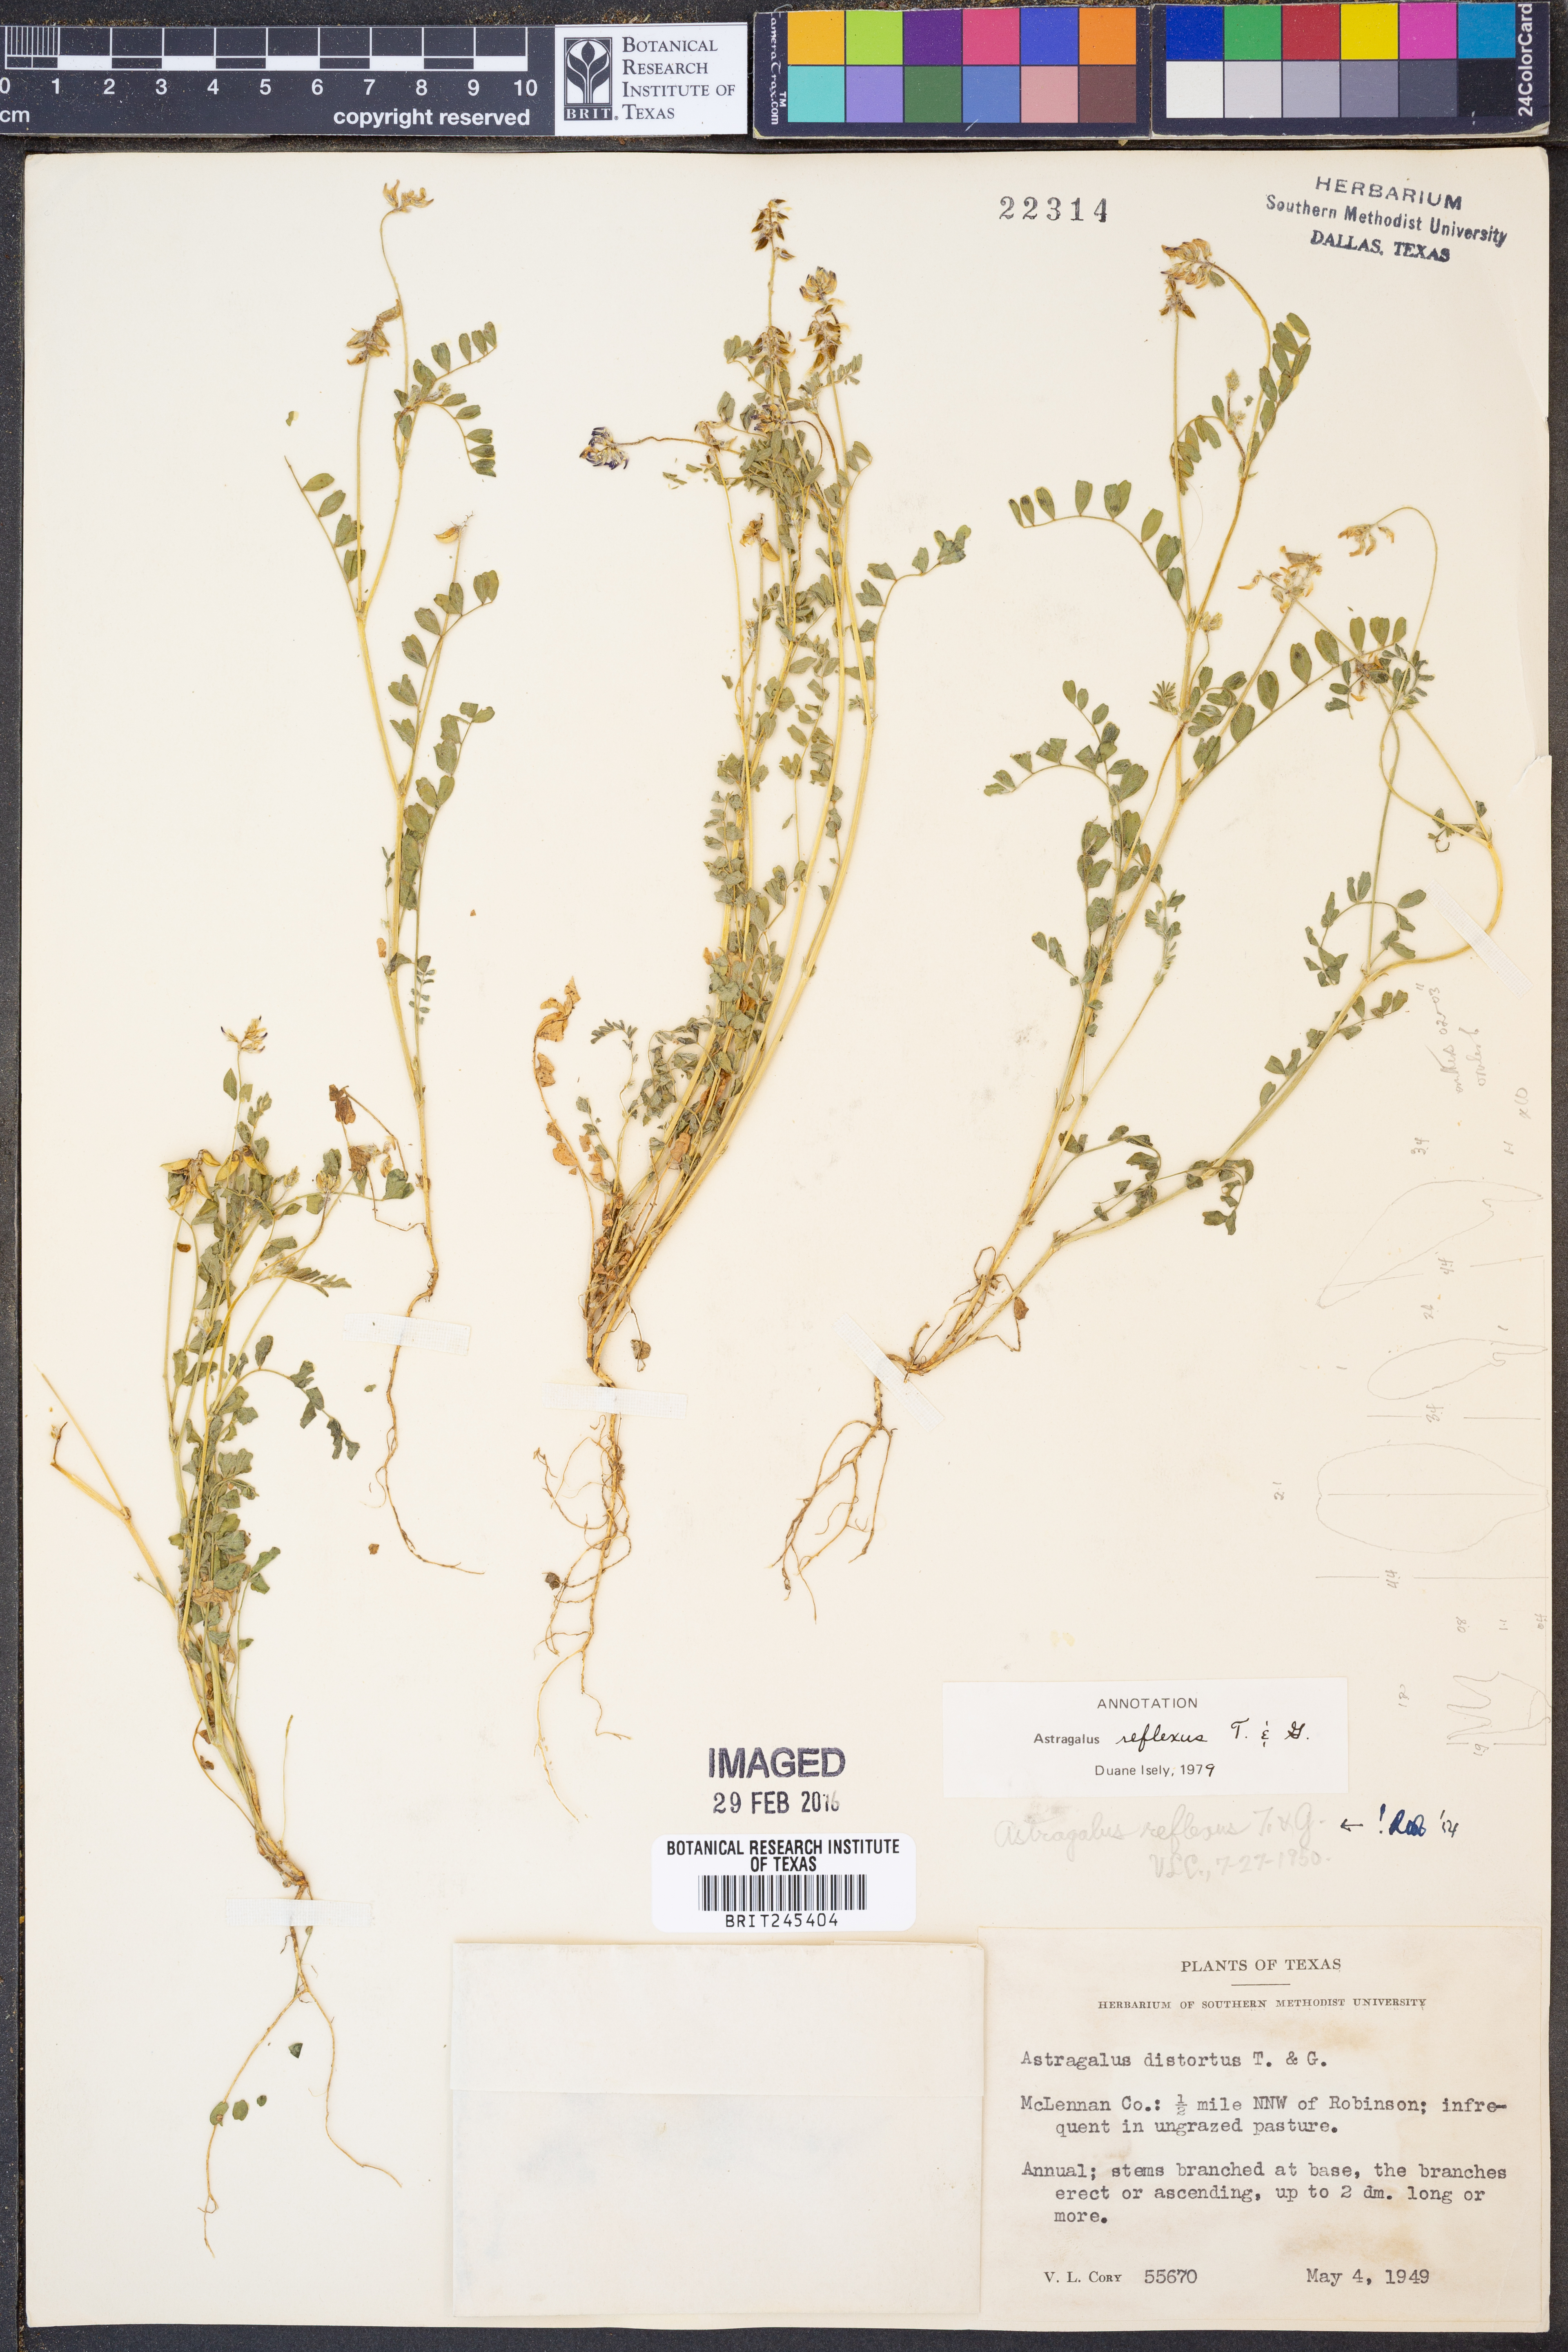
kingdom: Plantae
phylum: Tracheophyta
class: Magnoliopsida
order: Fabales
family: Fabaceae
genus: Astragalus
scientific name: Astragalus reflexus
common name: Texas milk-vetch
